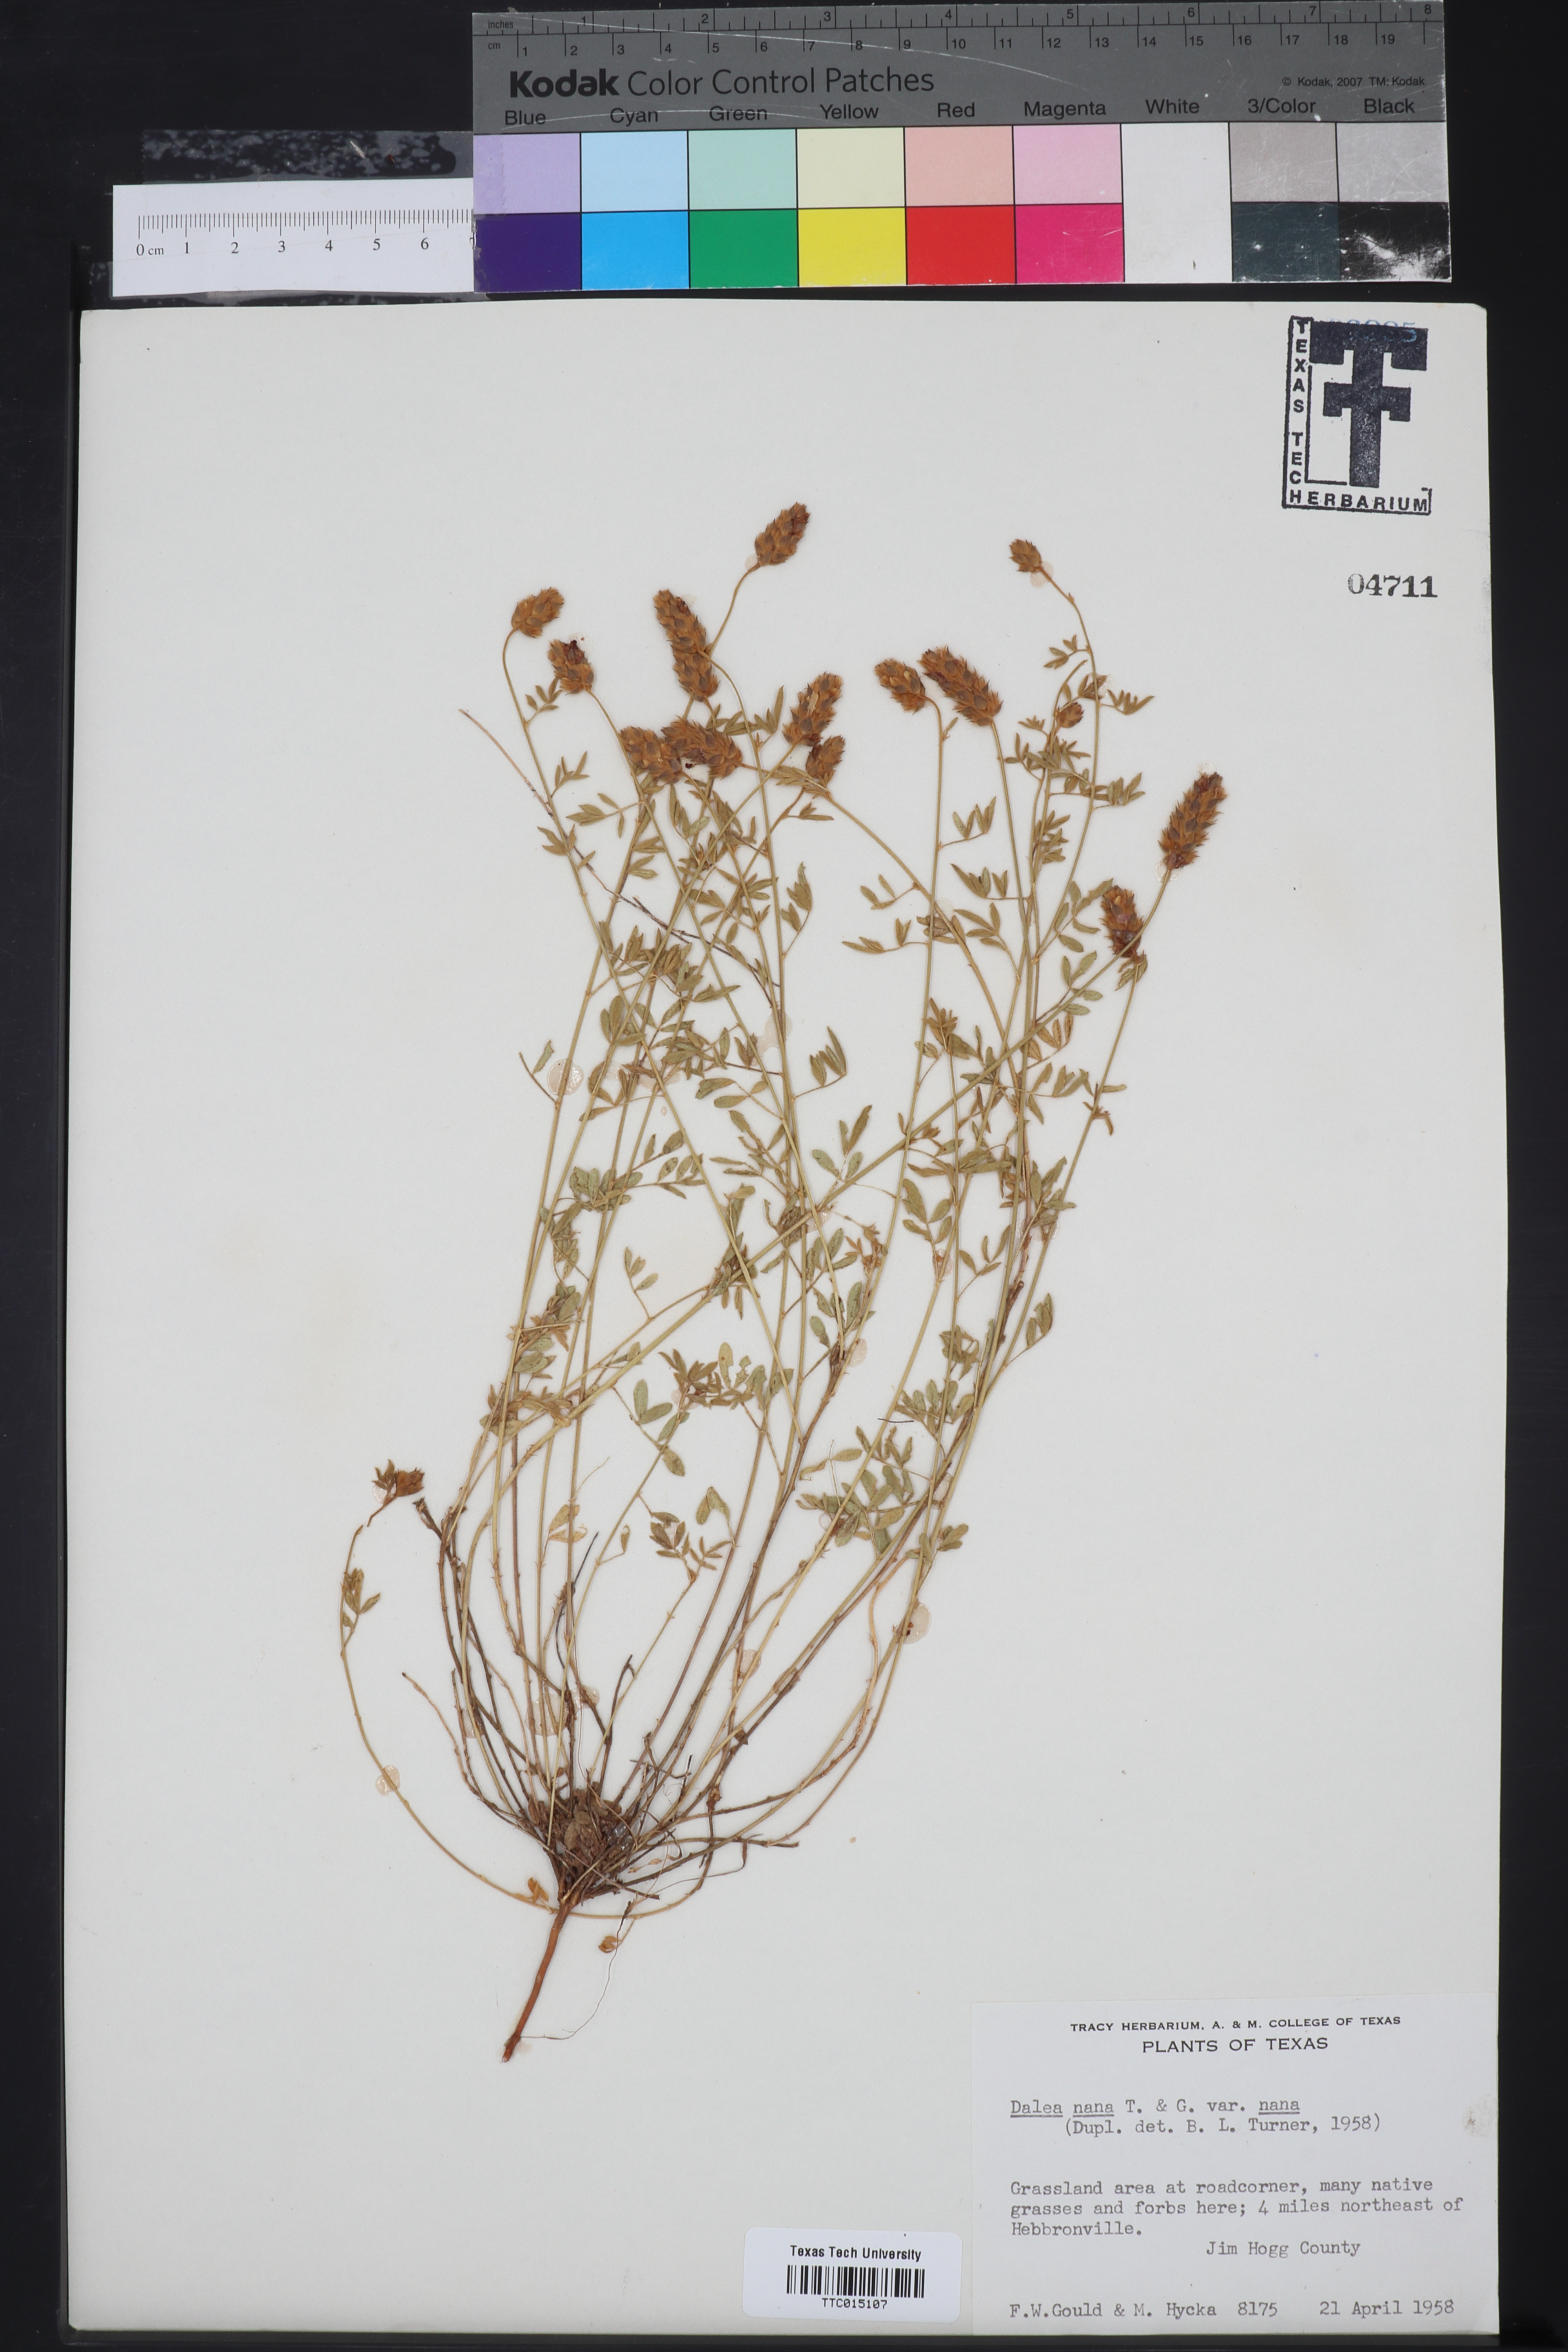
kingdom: Plantae
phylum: Tracheophyta
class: Magnoliopsida
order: Fabales
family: Fabaceae
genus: Dalea
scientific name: Dalea nana
